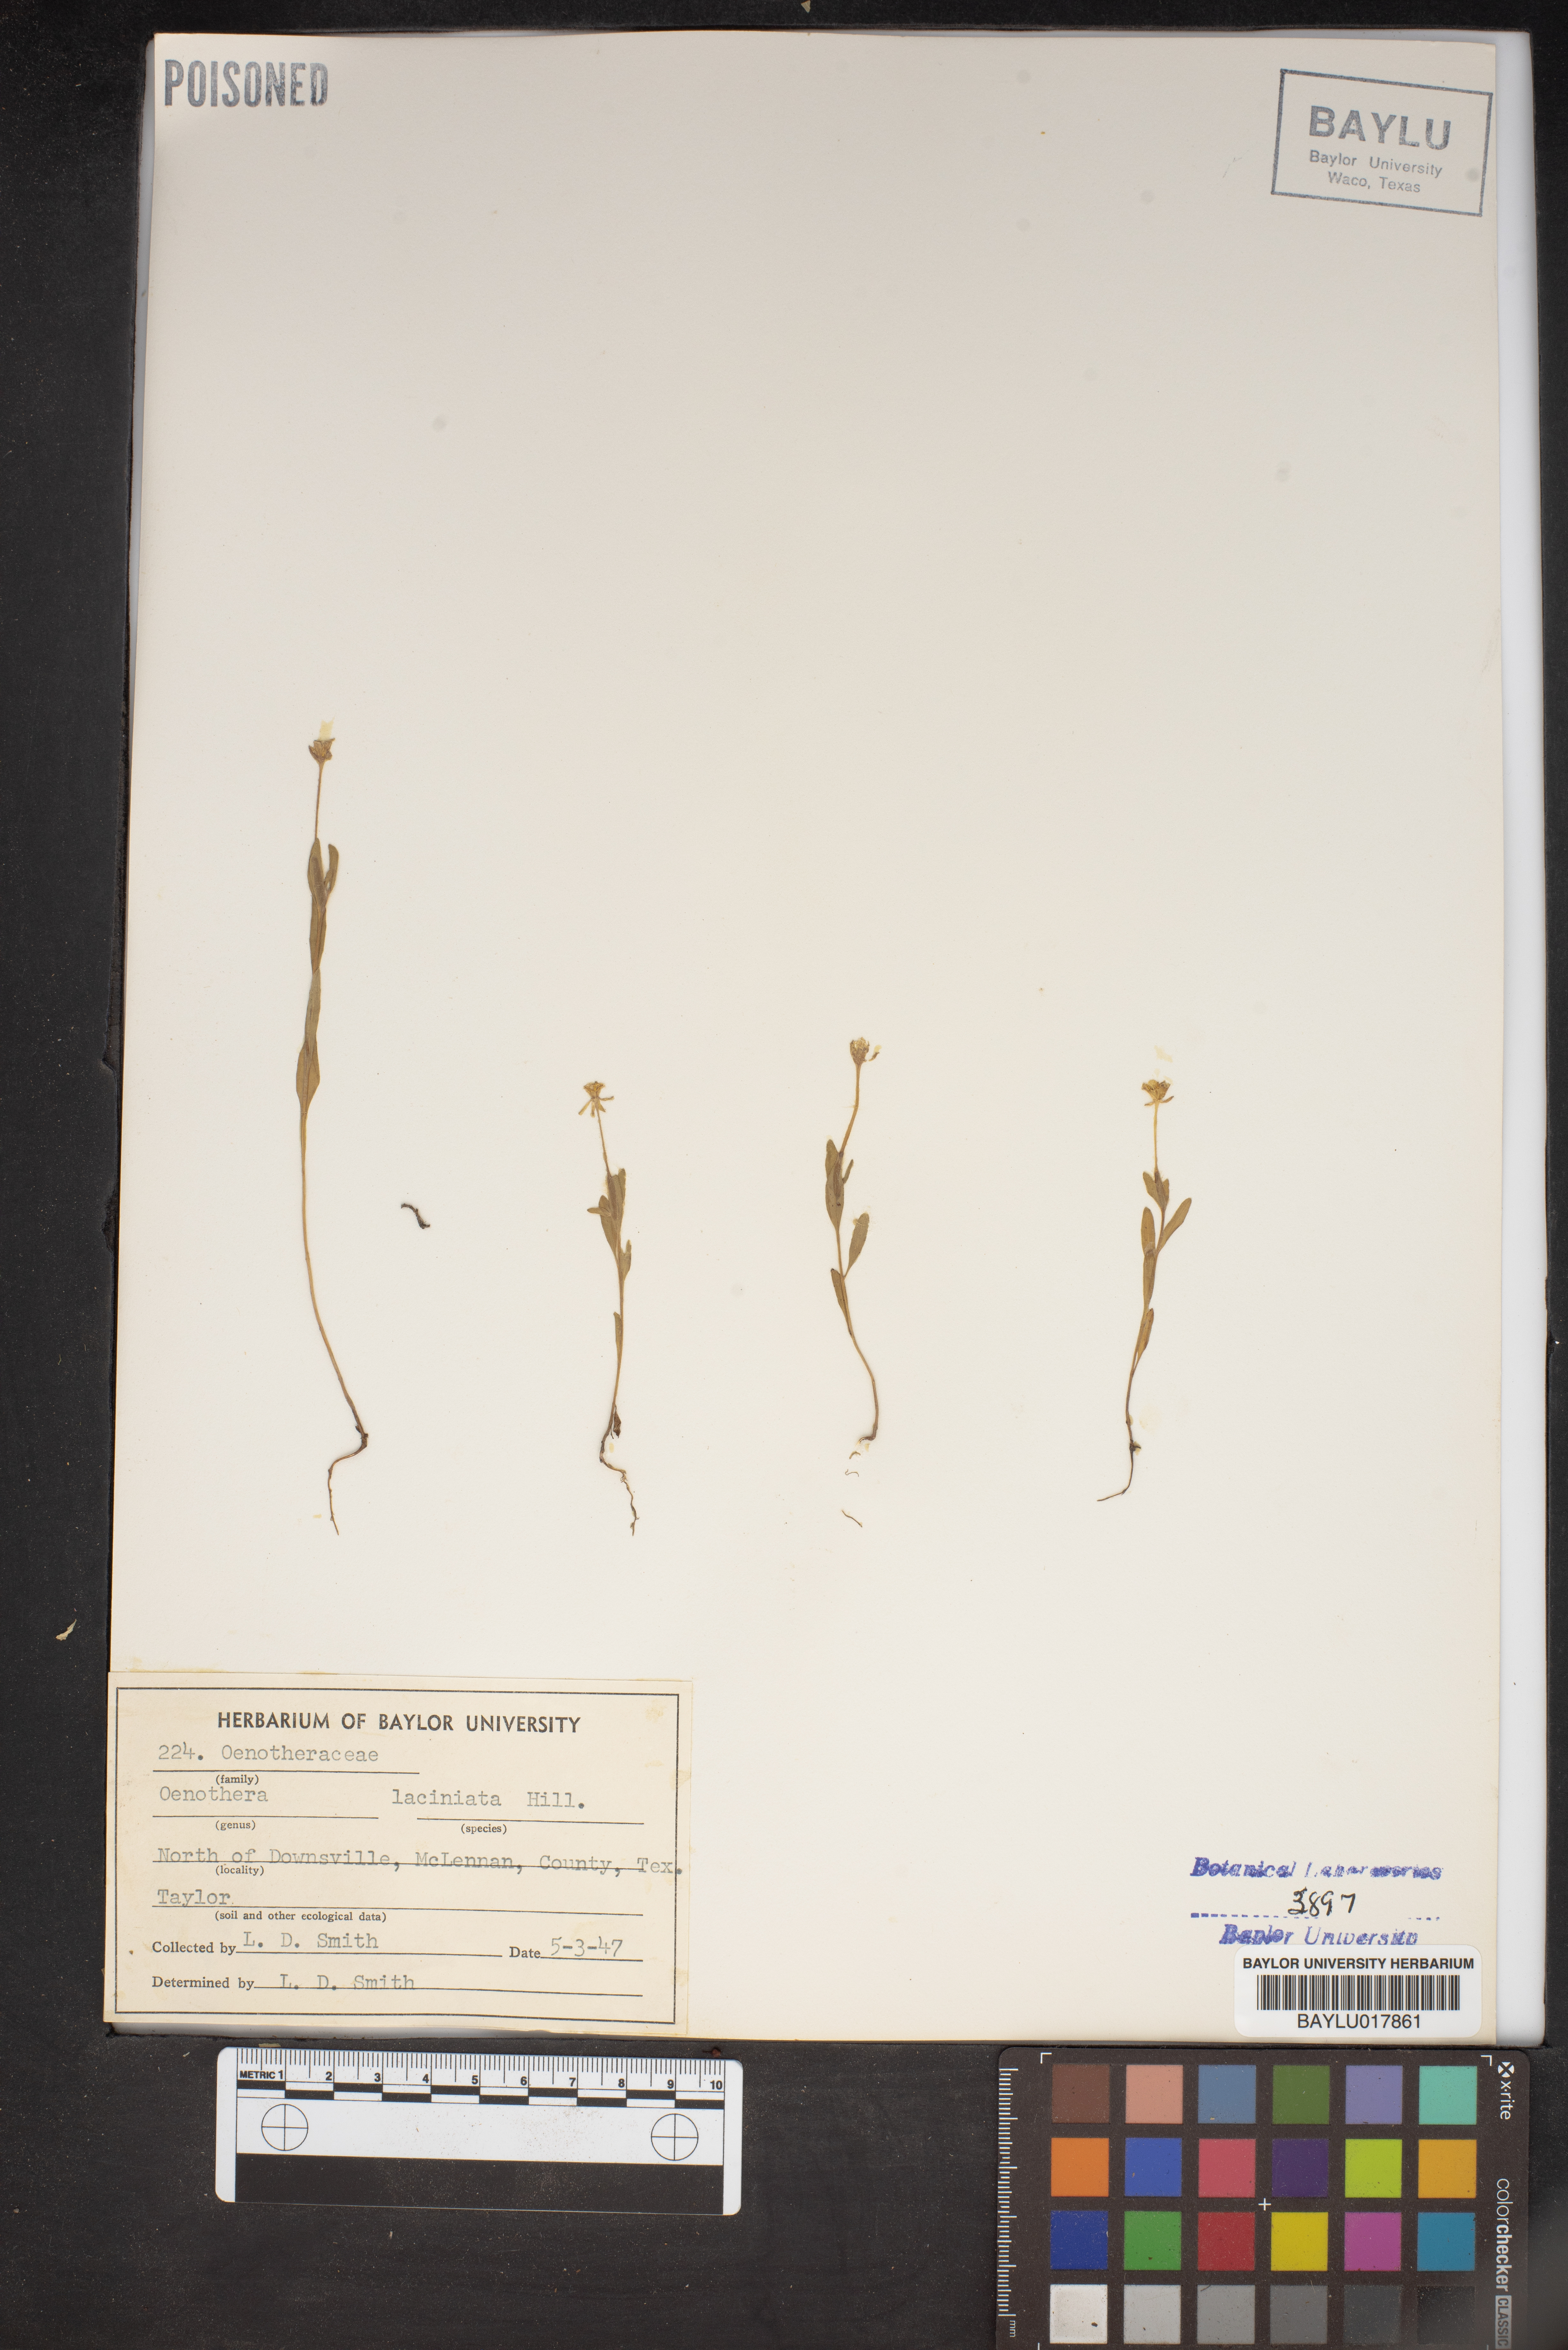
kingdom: Plantae
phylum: Tracheophyta
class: Magnoliopsida
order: Myrtales
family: Onagraceae
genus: Oenothera
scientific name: Oenothera laciniata
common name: Cut-leaved evening-primrose
